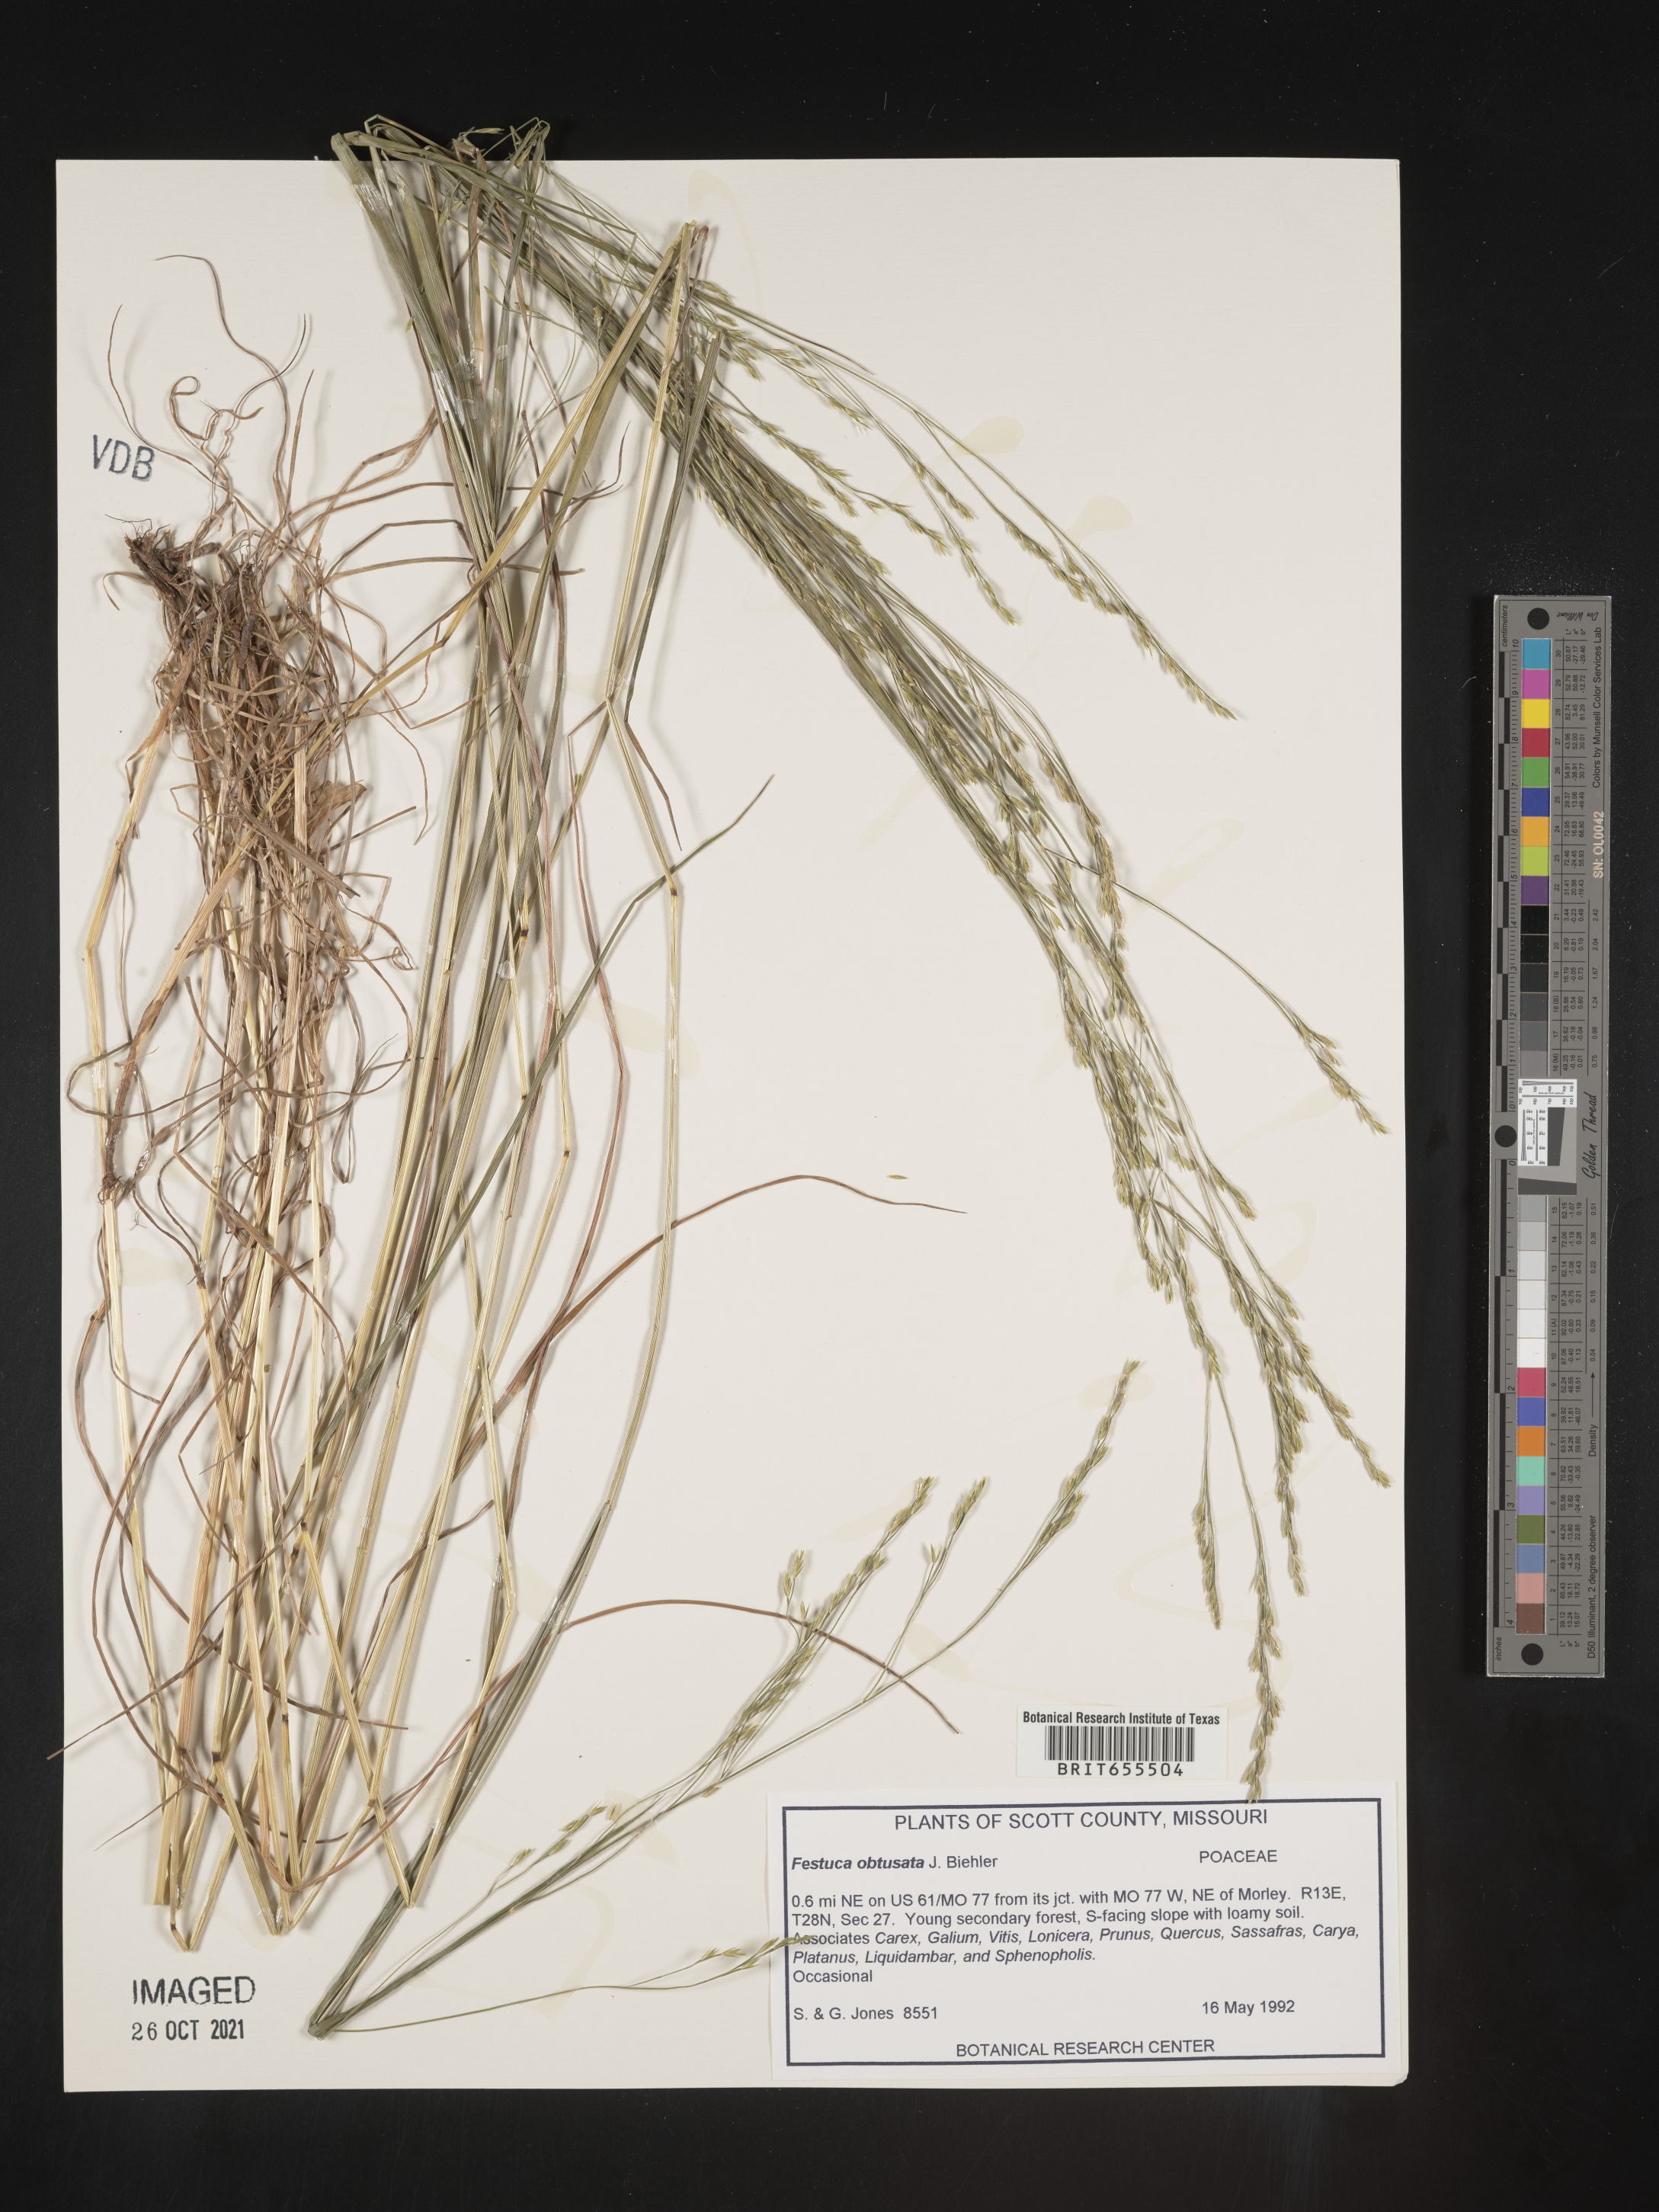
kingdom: Plantae
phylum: Tracheophyta
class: Liliopsida
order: Poales
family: Poaceae
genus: Festuca
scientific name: Festuca
